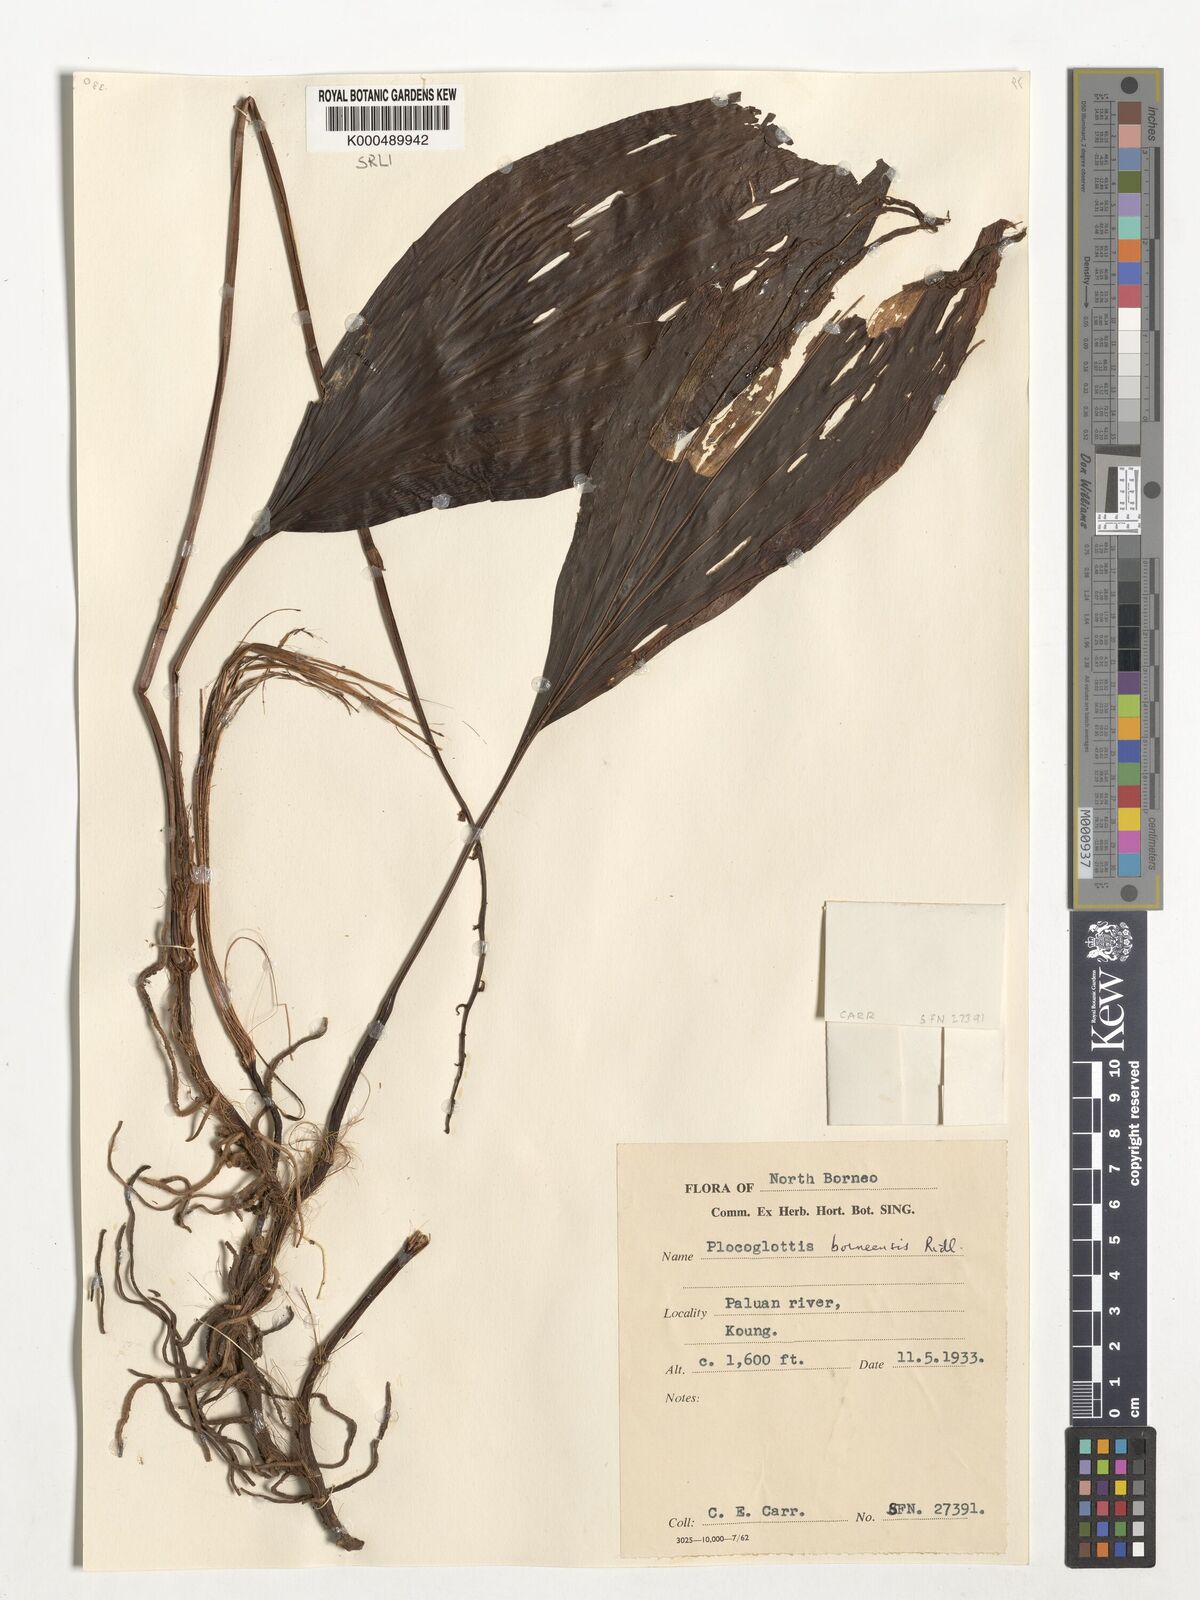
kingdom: Plantae
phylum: Tracheophyta
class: Liliopsida
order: Asparagales
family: Orchidaceae
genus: Plocoglottis
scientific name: Plocoglottis borneensis
